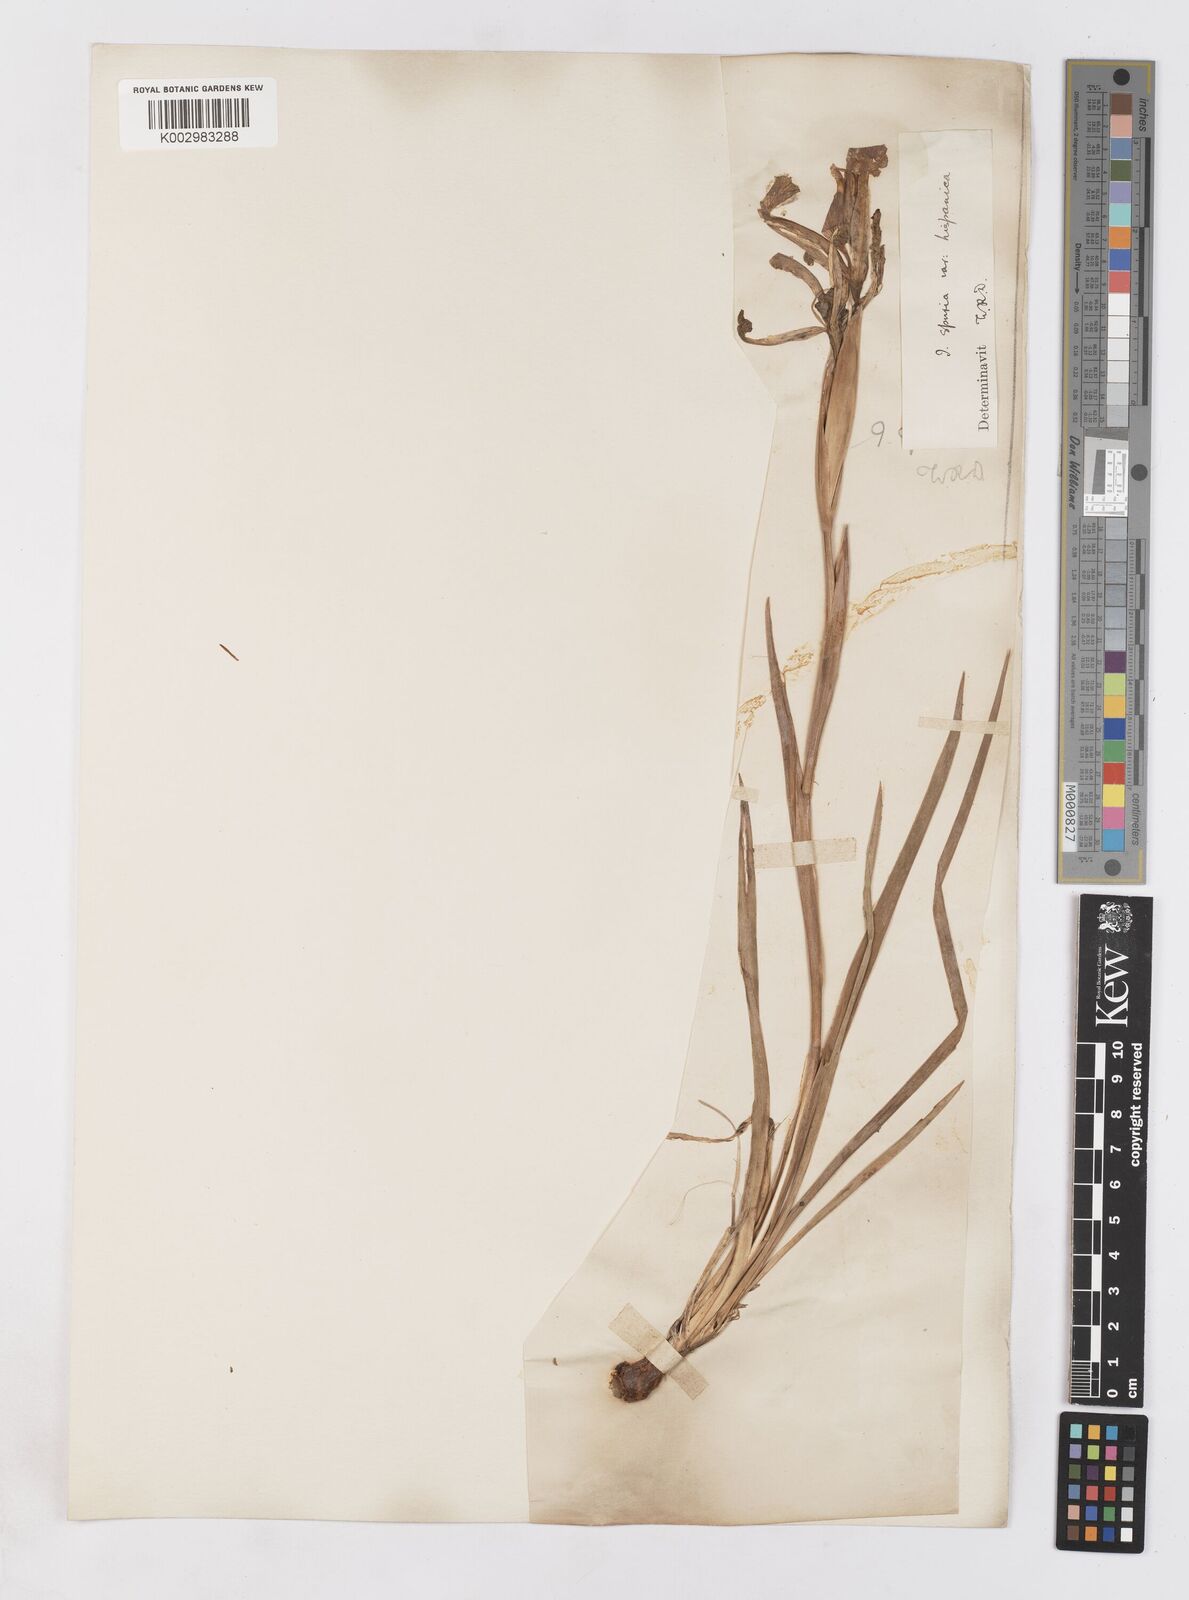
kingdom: Plantae
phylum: Tracheophyta
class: Liliopsida
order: Asparagales
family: Iridaceae
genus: Iris
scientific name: Iris spuria
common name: Blue iris
